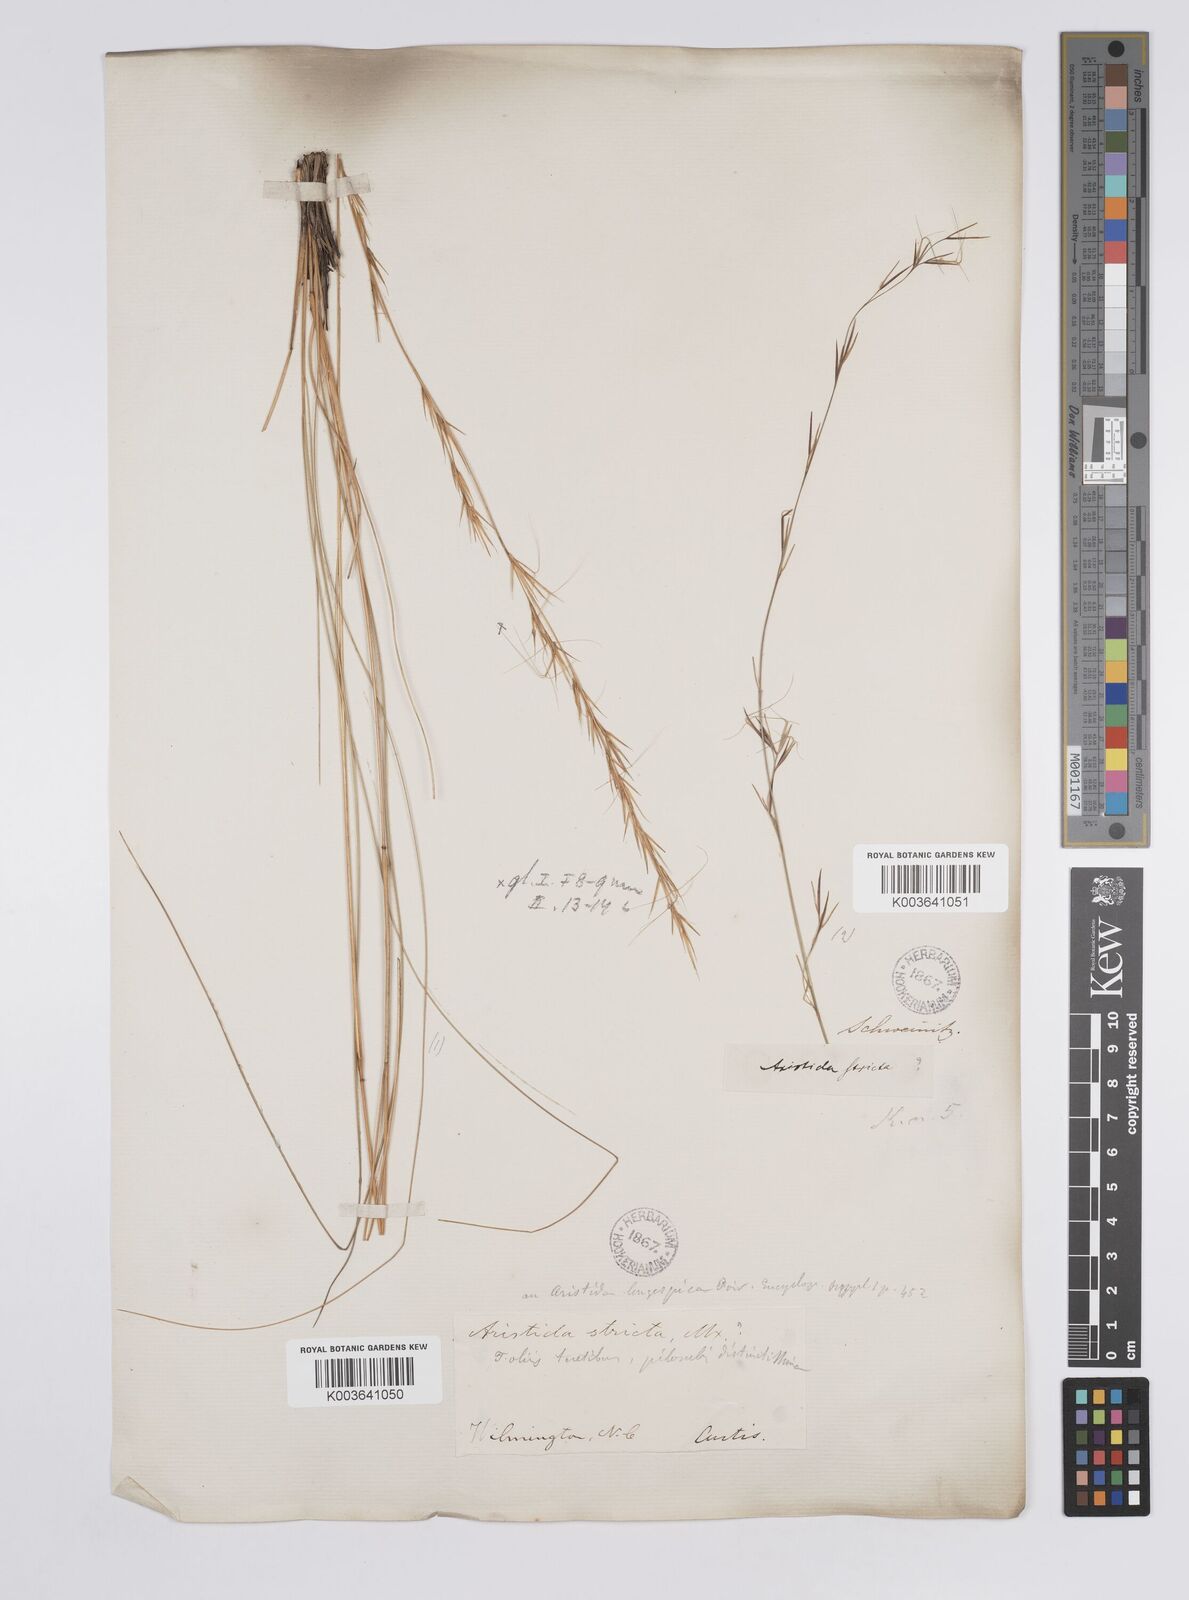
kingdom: Plantae
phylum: Tracheophyta
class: Liliopsida
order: Poales
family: Poaceae
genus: Aristida
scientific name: Aristida stricta
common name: Pineland three-awn
